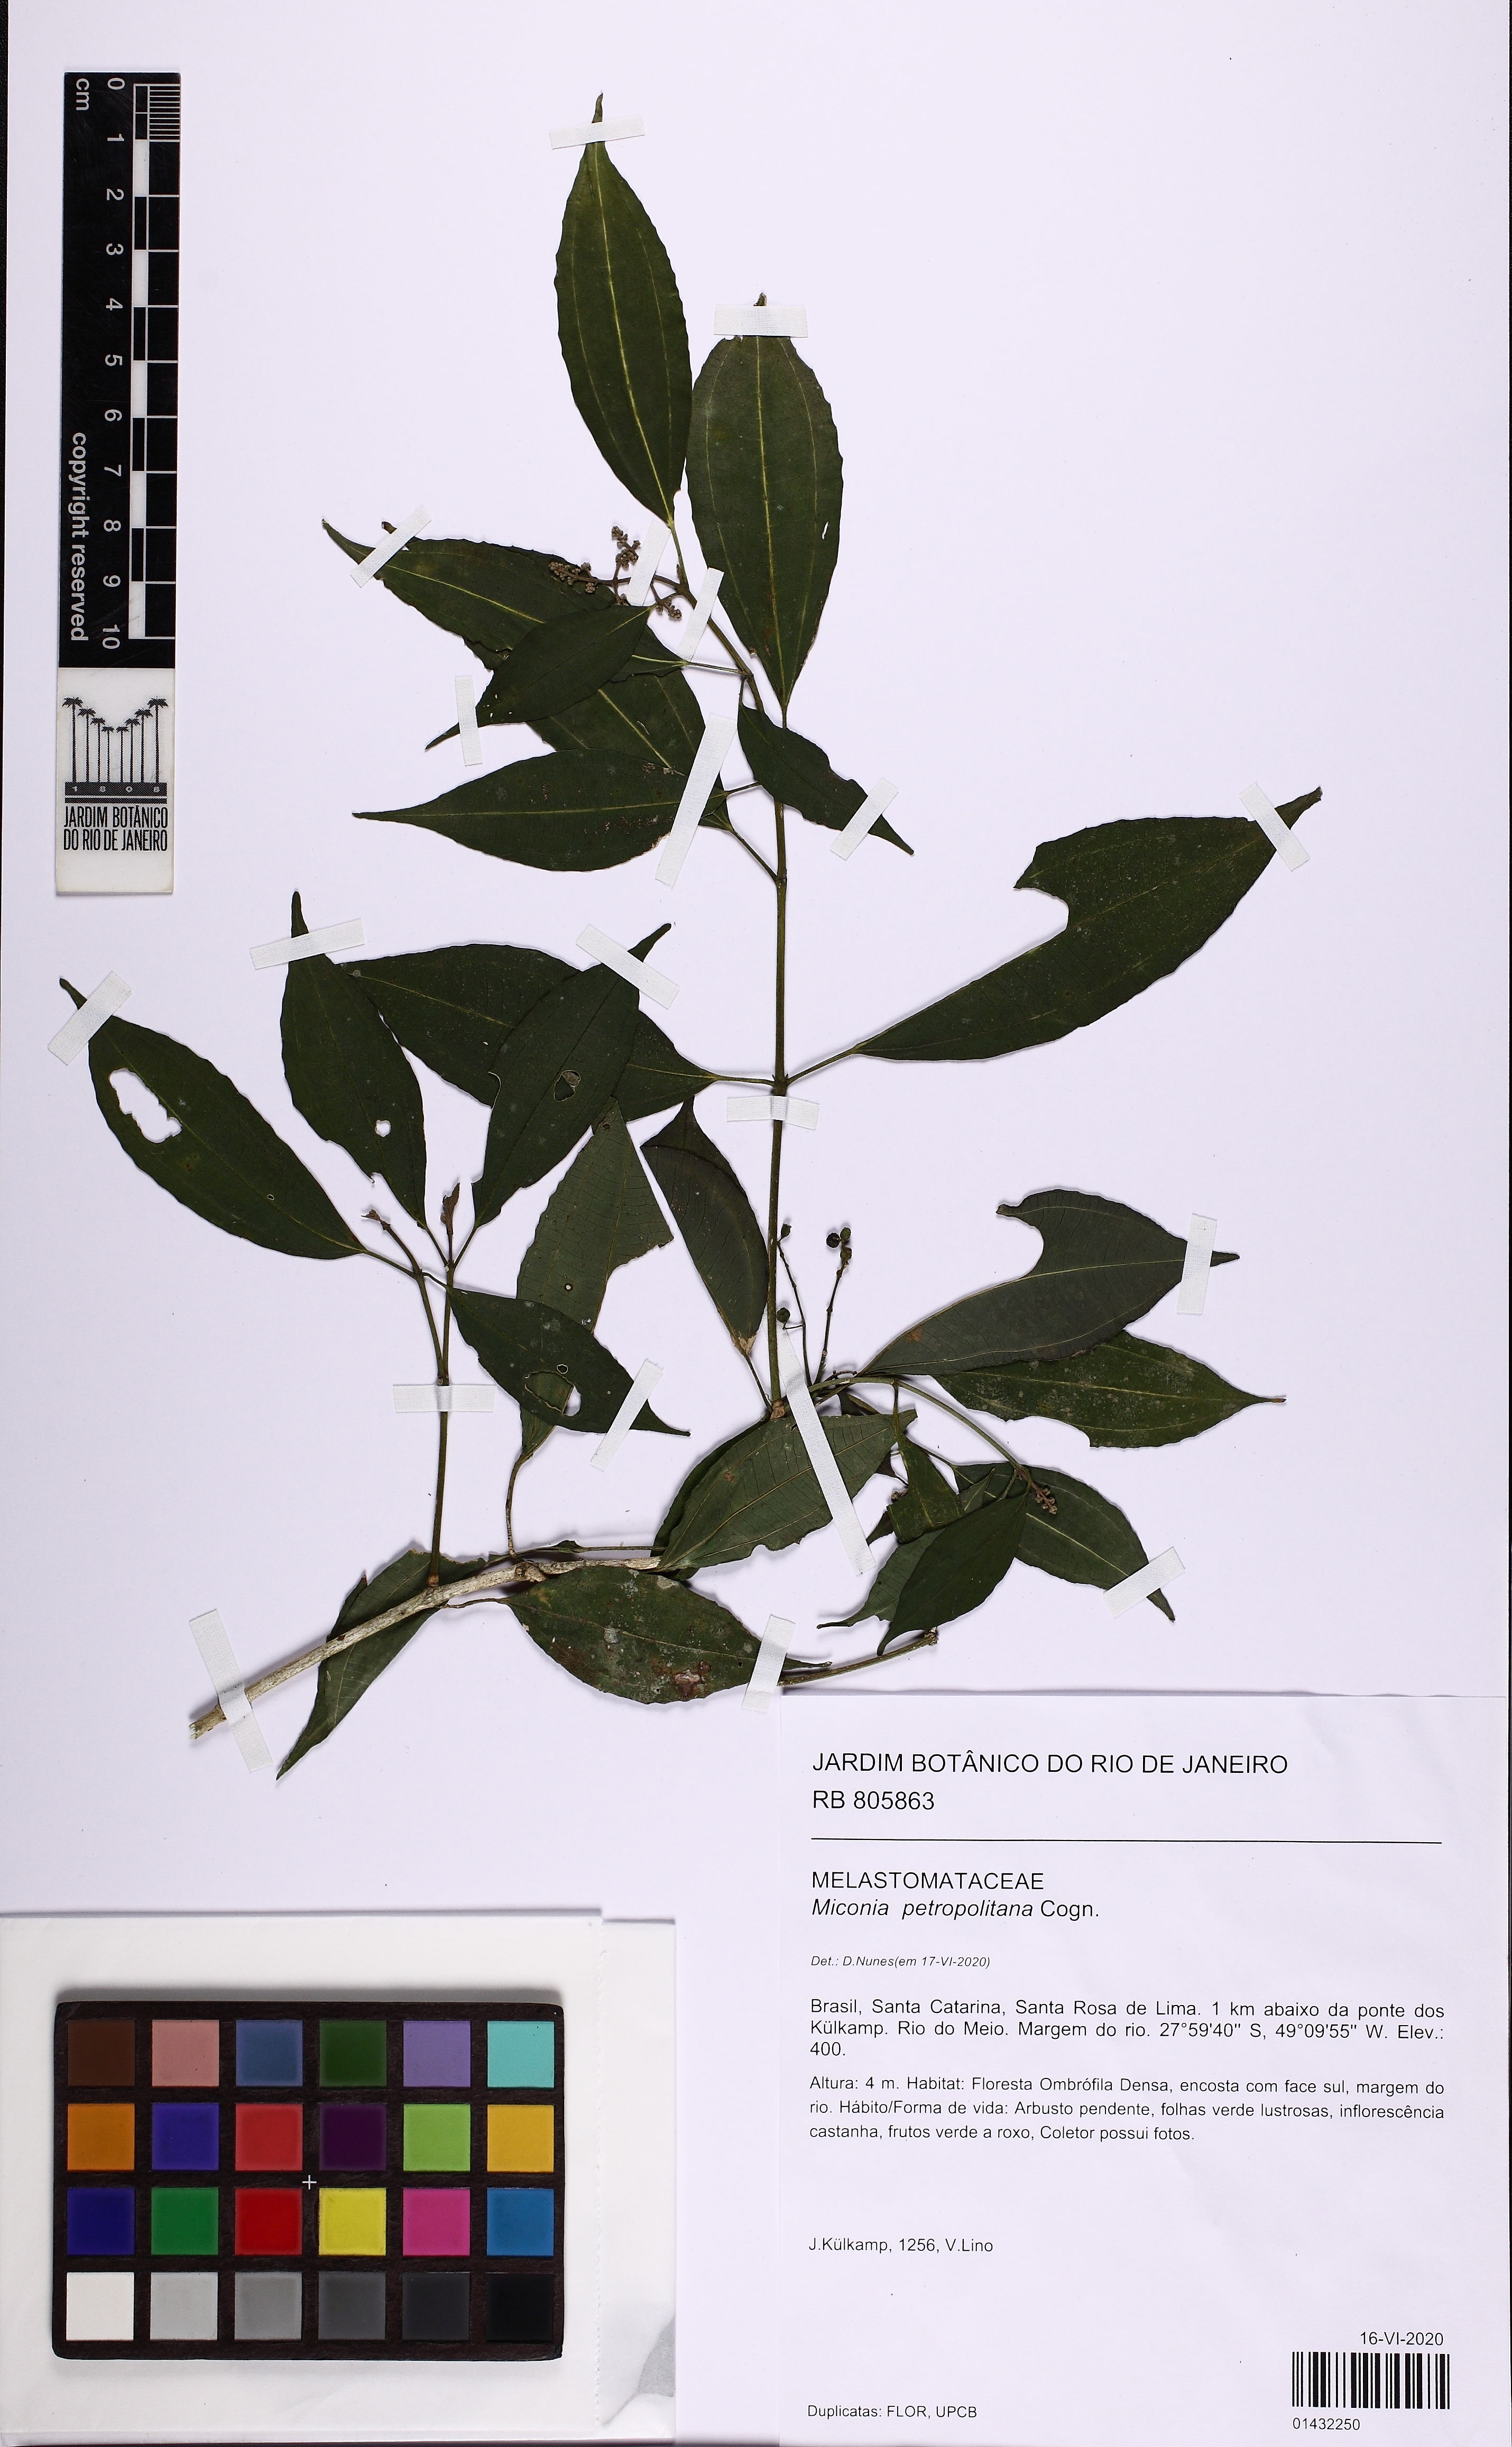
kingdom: Plantae
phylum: Tracheophyta
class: Magnoliopsida
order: Myrtales
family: Melastomataceae
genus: Miconia
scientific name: Miconia petropolitana
